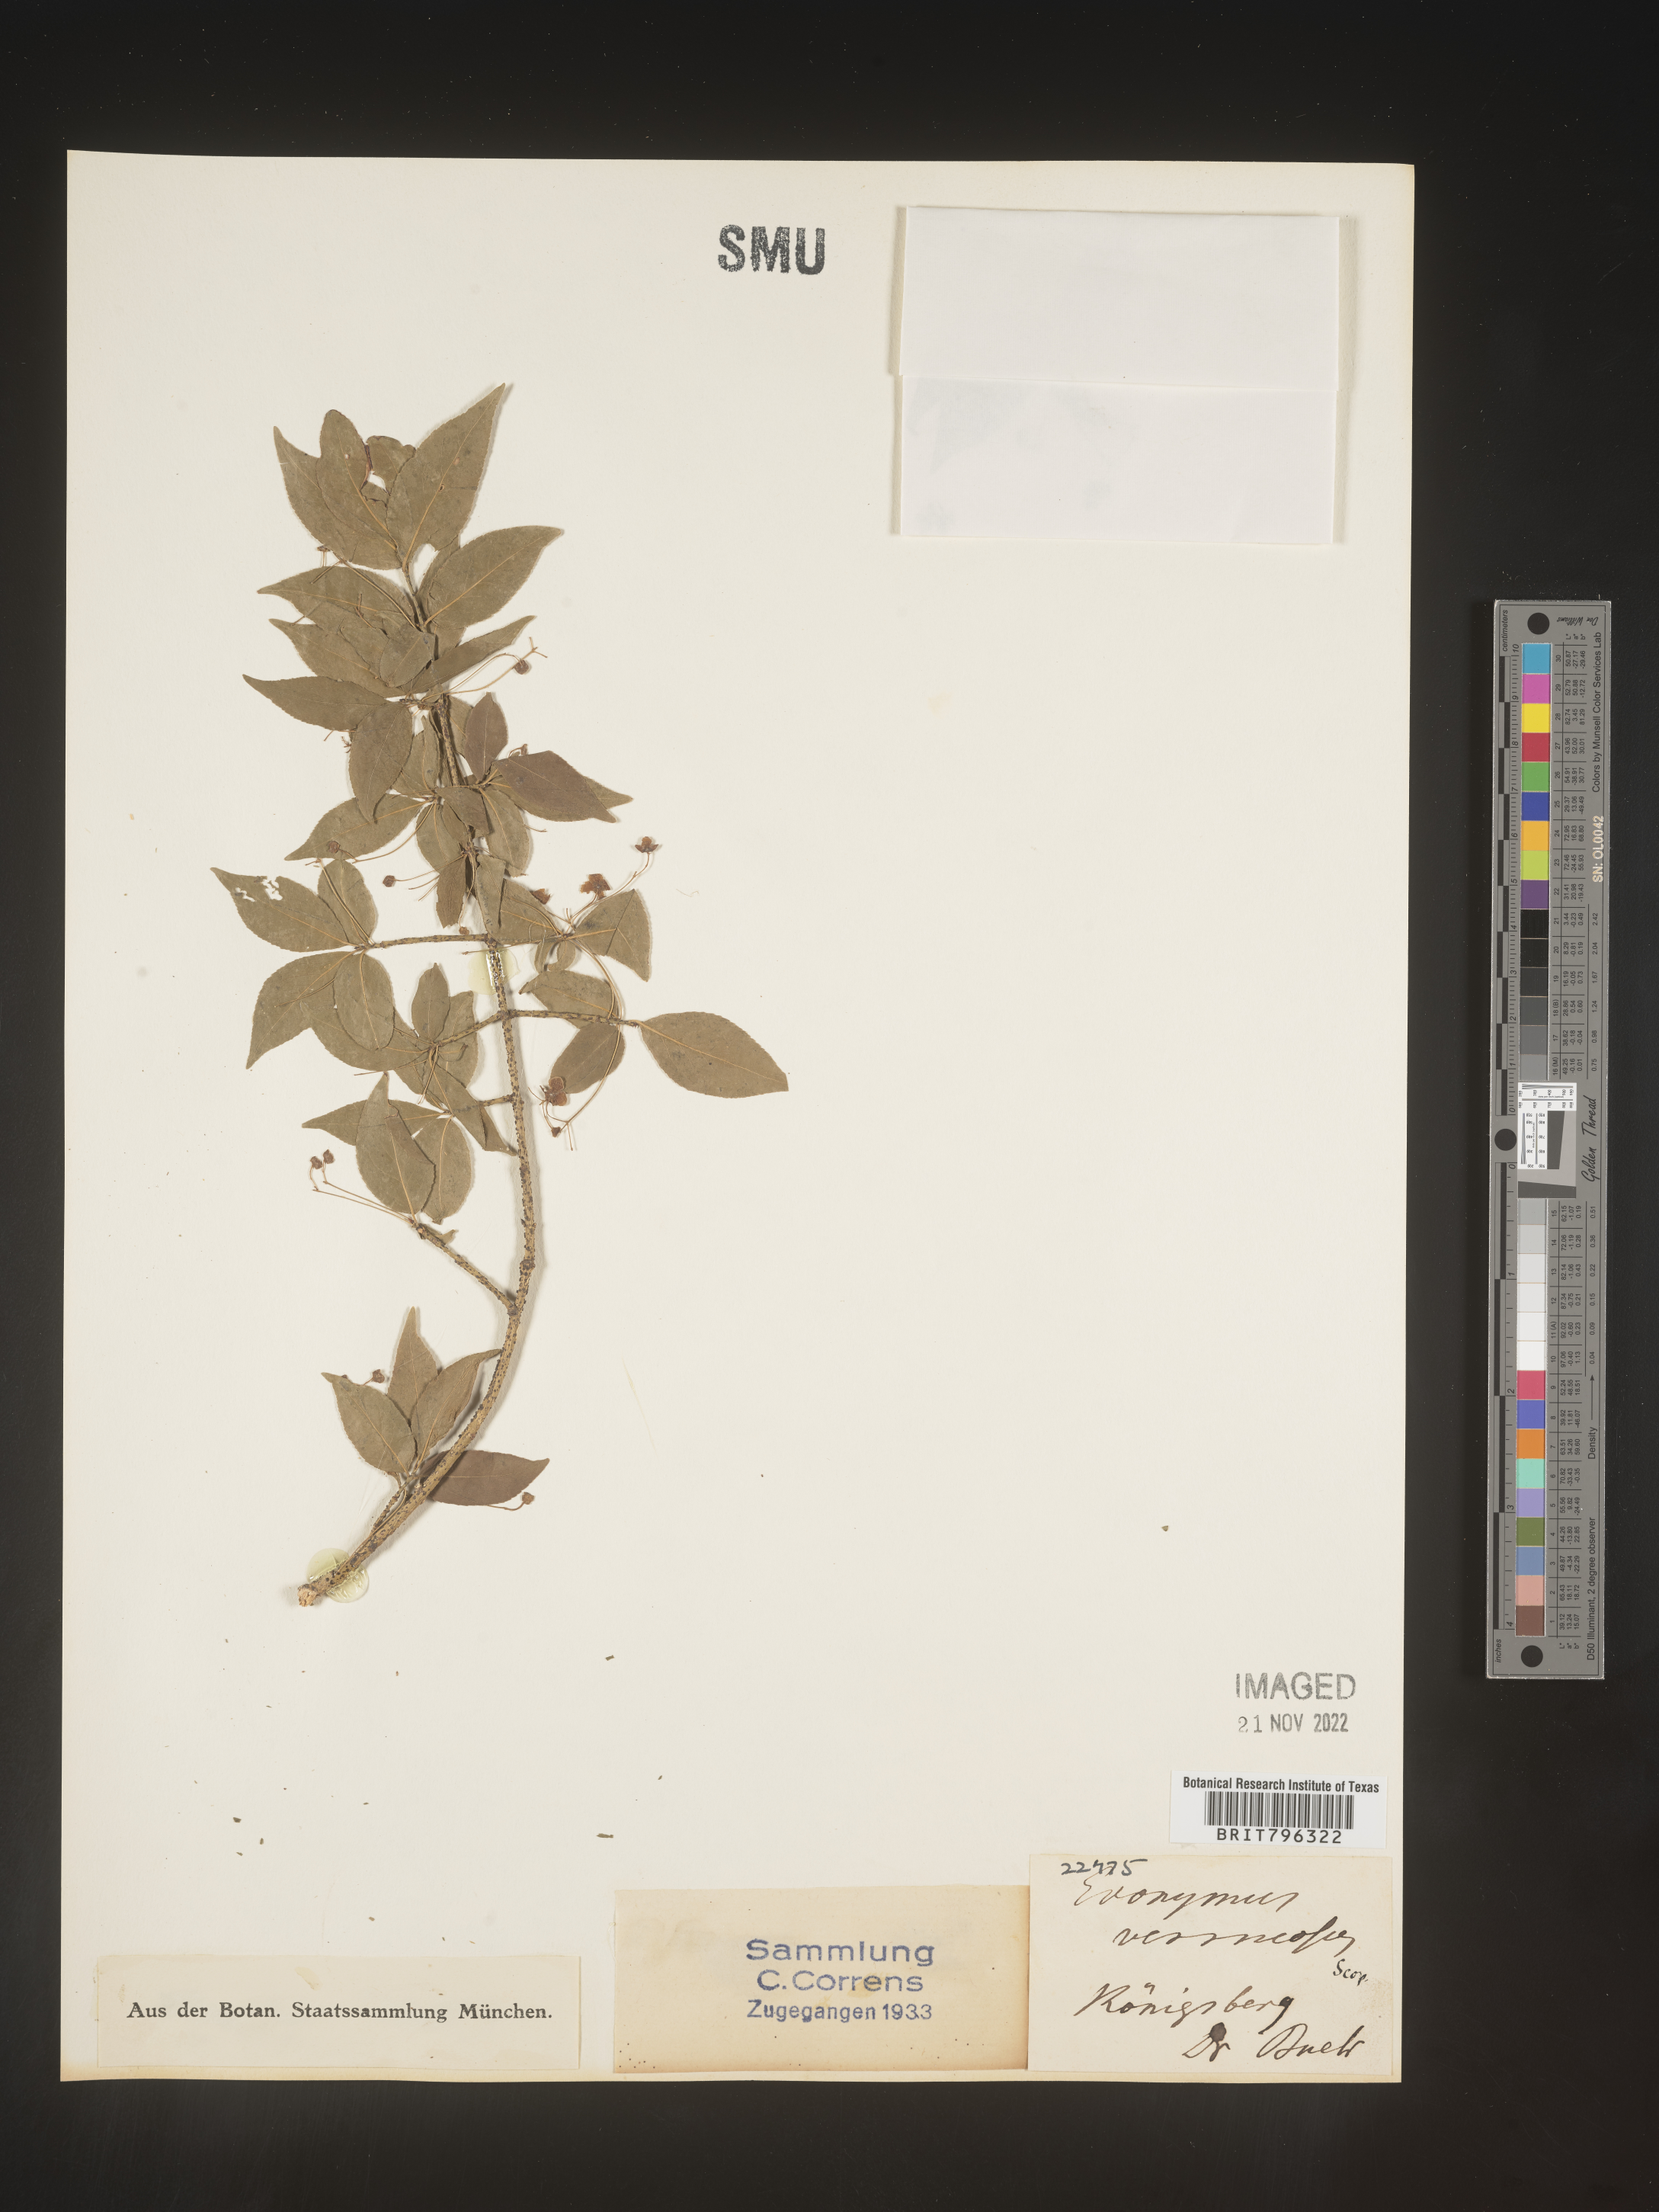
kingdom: Plantae
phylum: Tracheophyta
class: Magnoliopsida
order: Celastrales
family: Celastraceae
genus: Euonymus
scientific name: Euonymus
